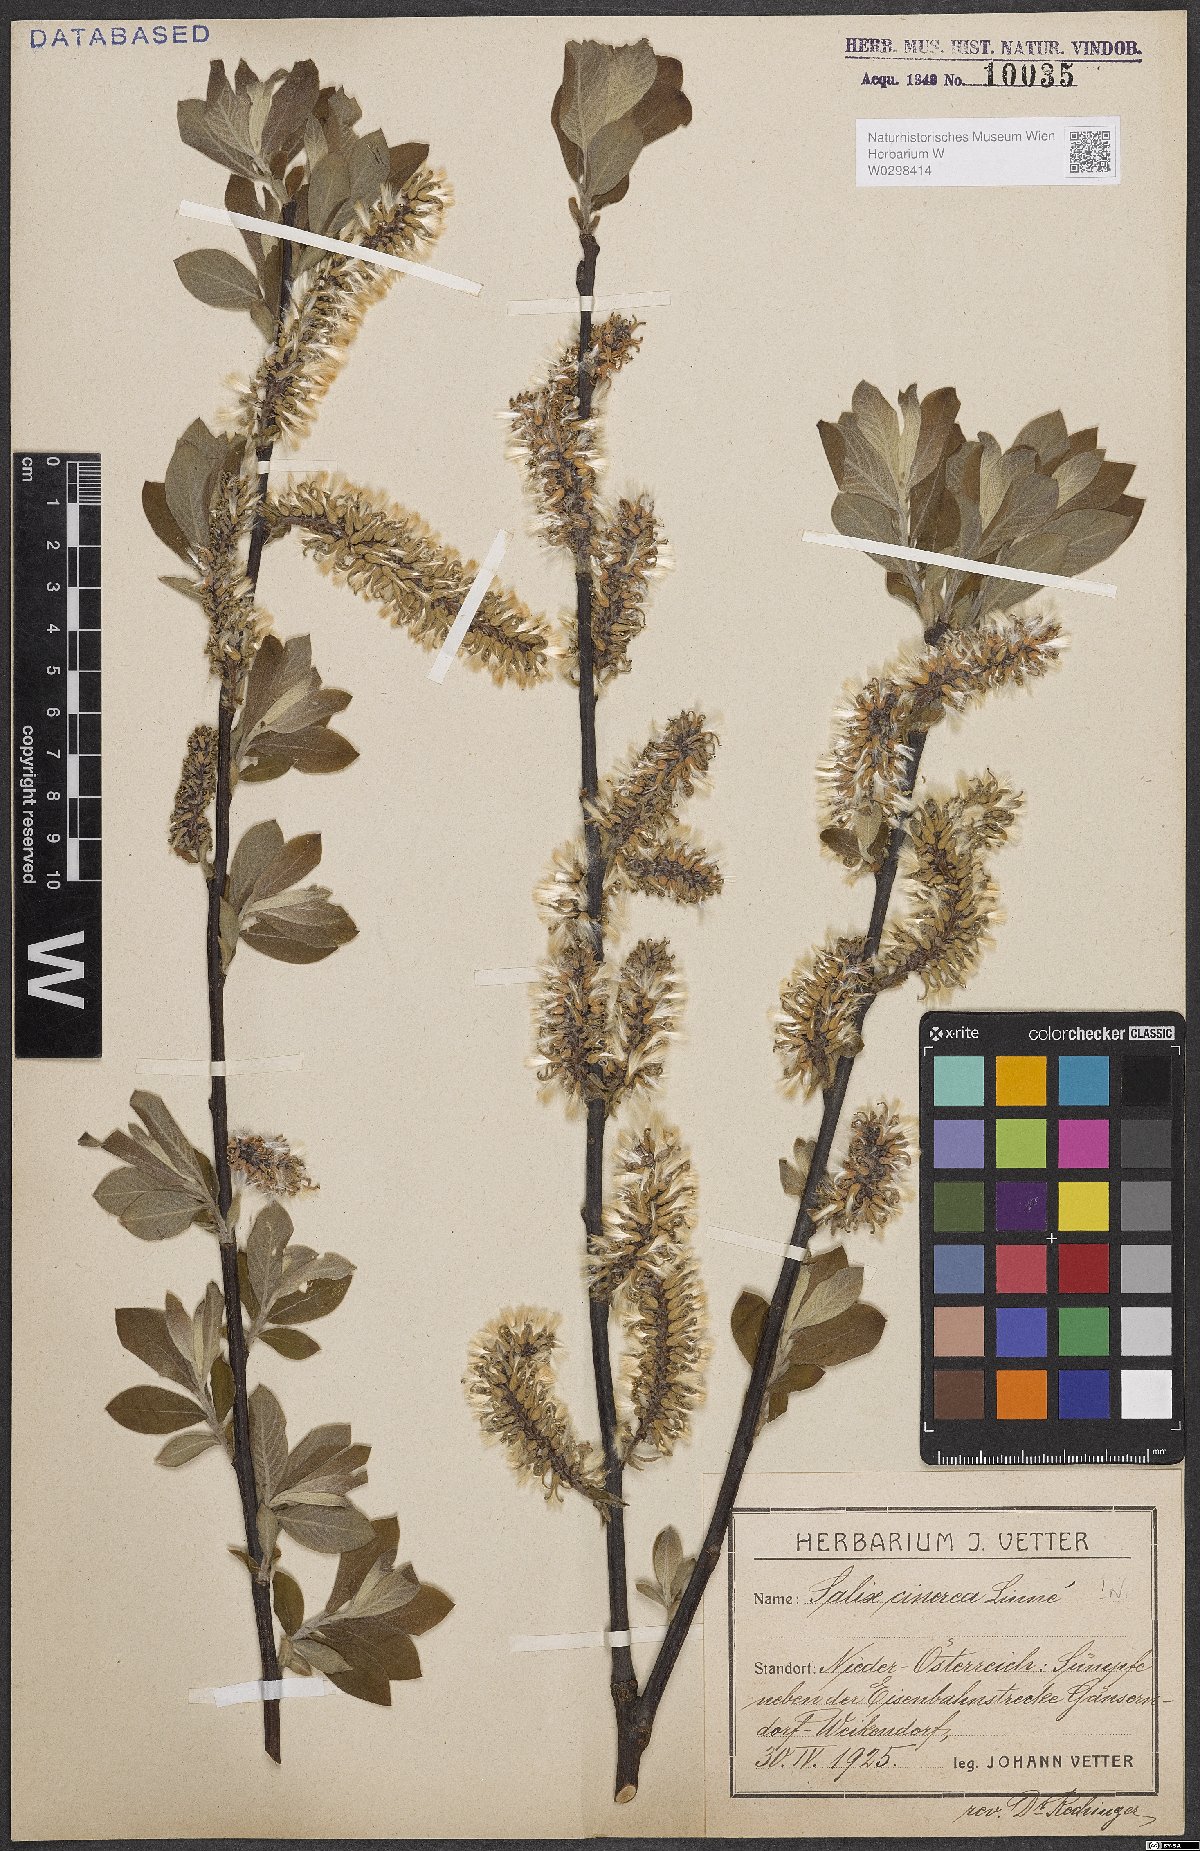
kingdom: Plantae
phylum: Tracheophyta
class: Magnoliopsida
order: Malpighiales
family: Salicaceae
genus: Salix
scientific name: Salix cinerea
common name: Common sallow
